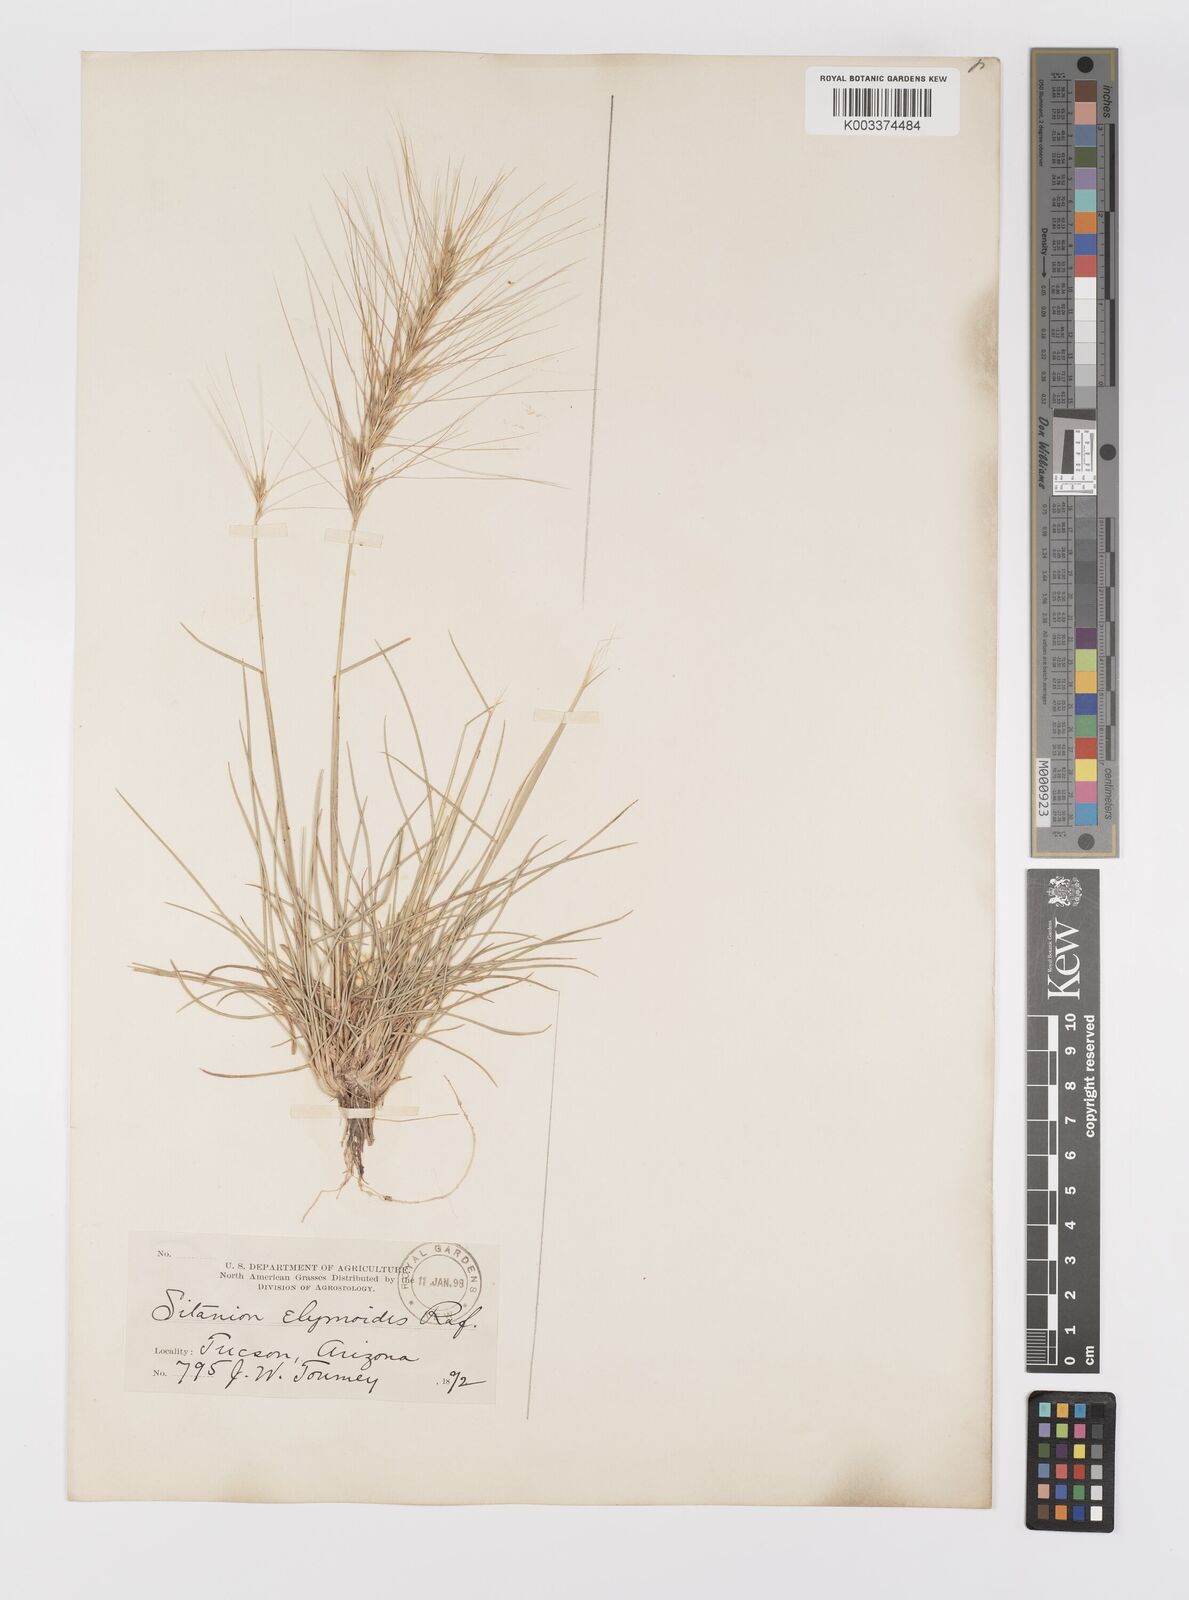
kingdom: Plantae
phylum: Tracheophyta
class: Liliopsida
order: Poales
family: Poaceae
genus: Elymus
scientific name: Elymus elymoides
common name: Bottlebrush squirreltail
